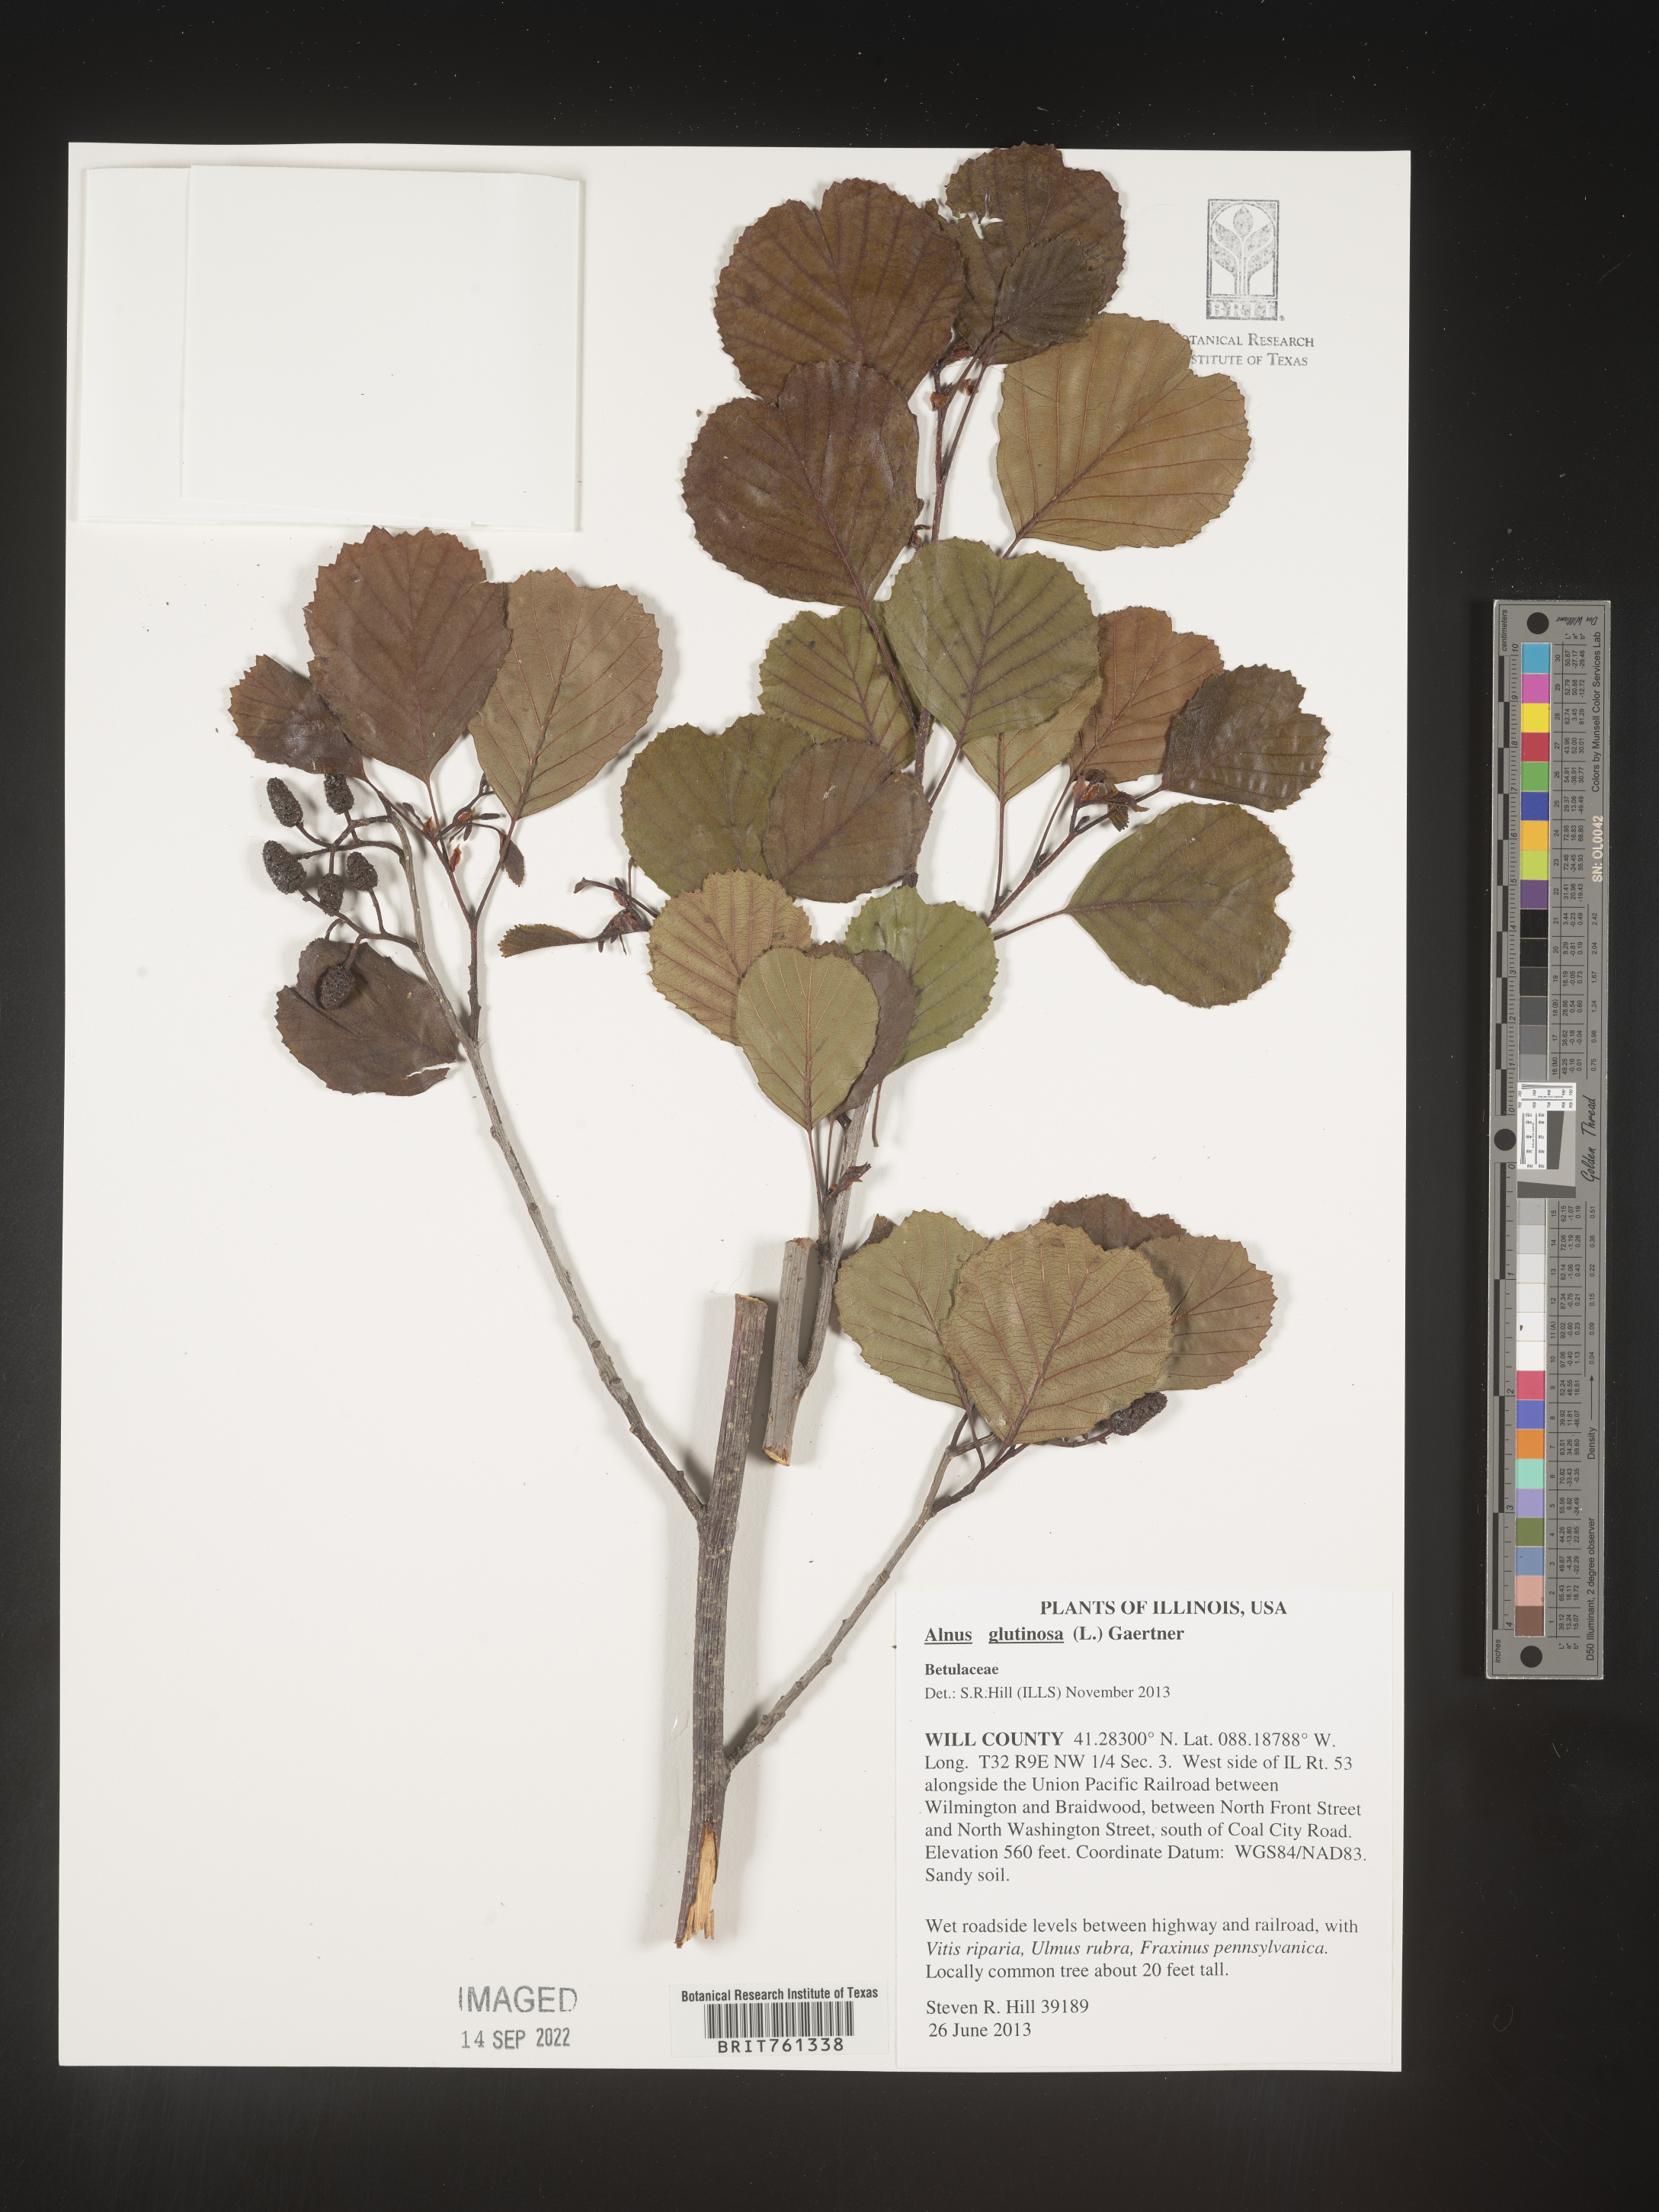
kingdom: Plantae
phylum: Tracheophyta
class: Magnoliopsida
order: Fagales
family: Betulaceae
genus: Alnus
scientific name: Alnus
